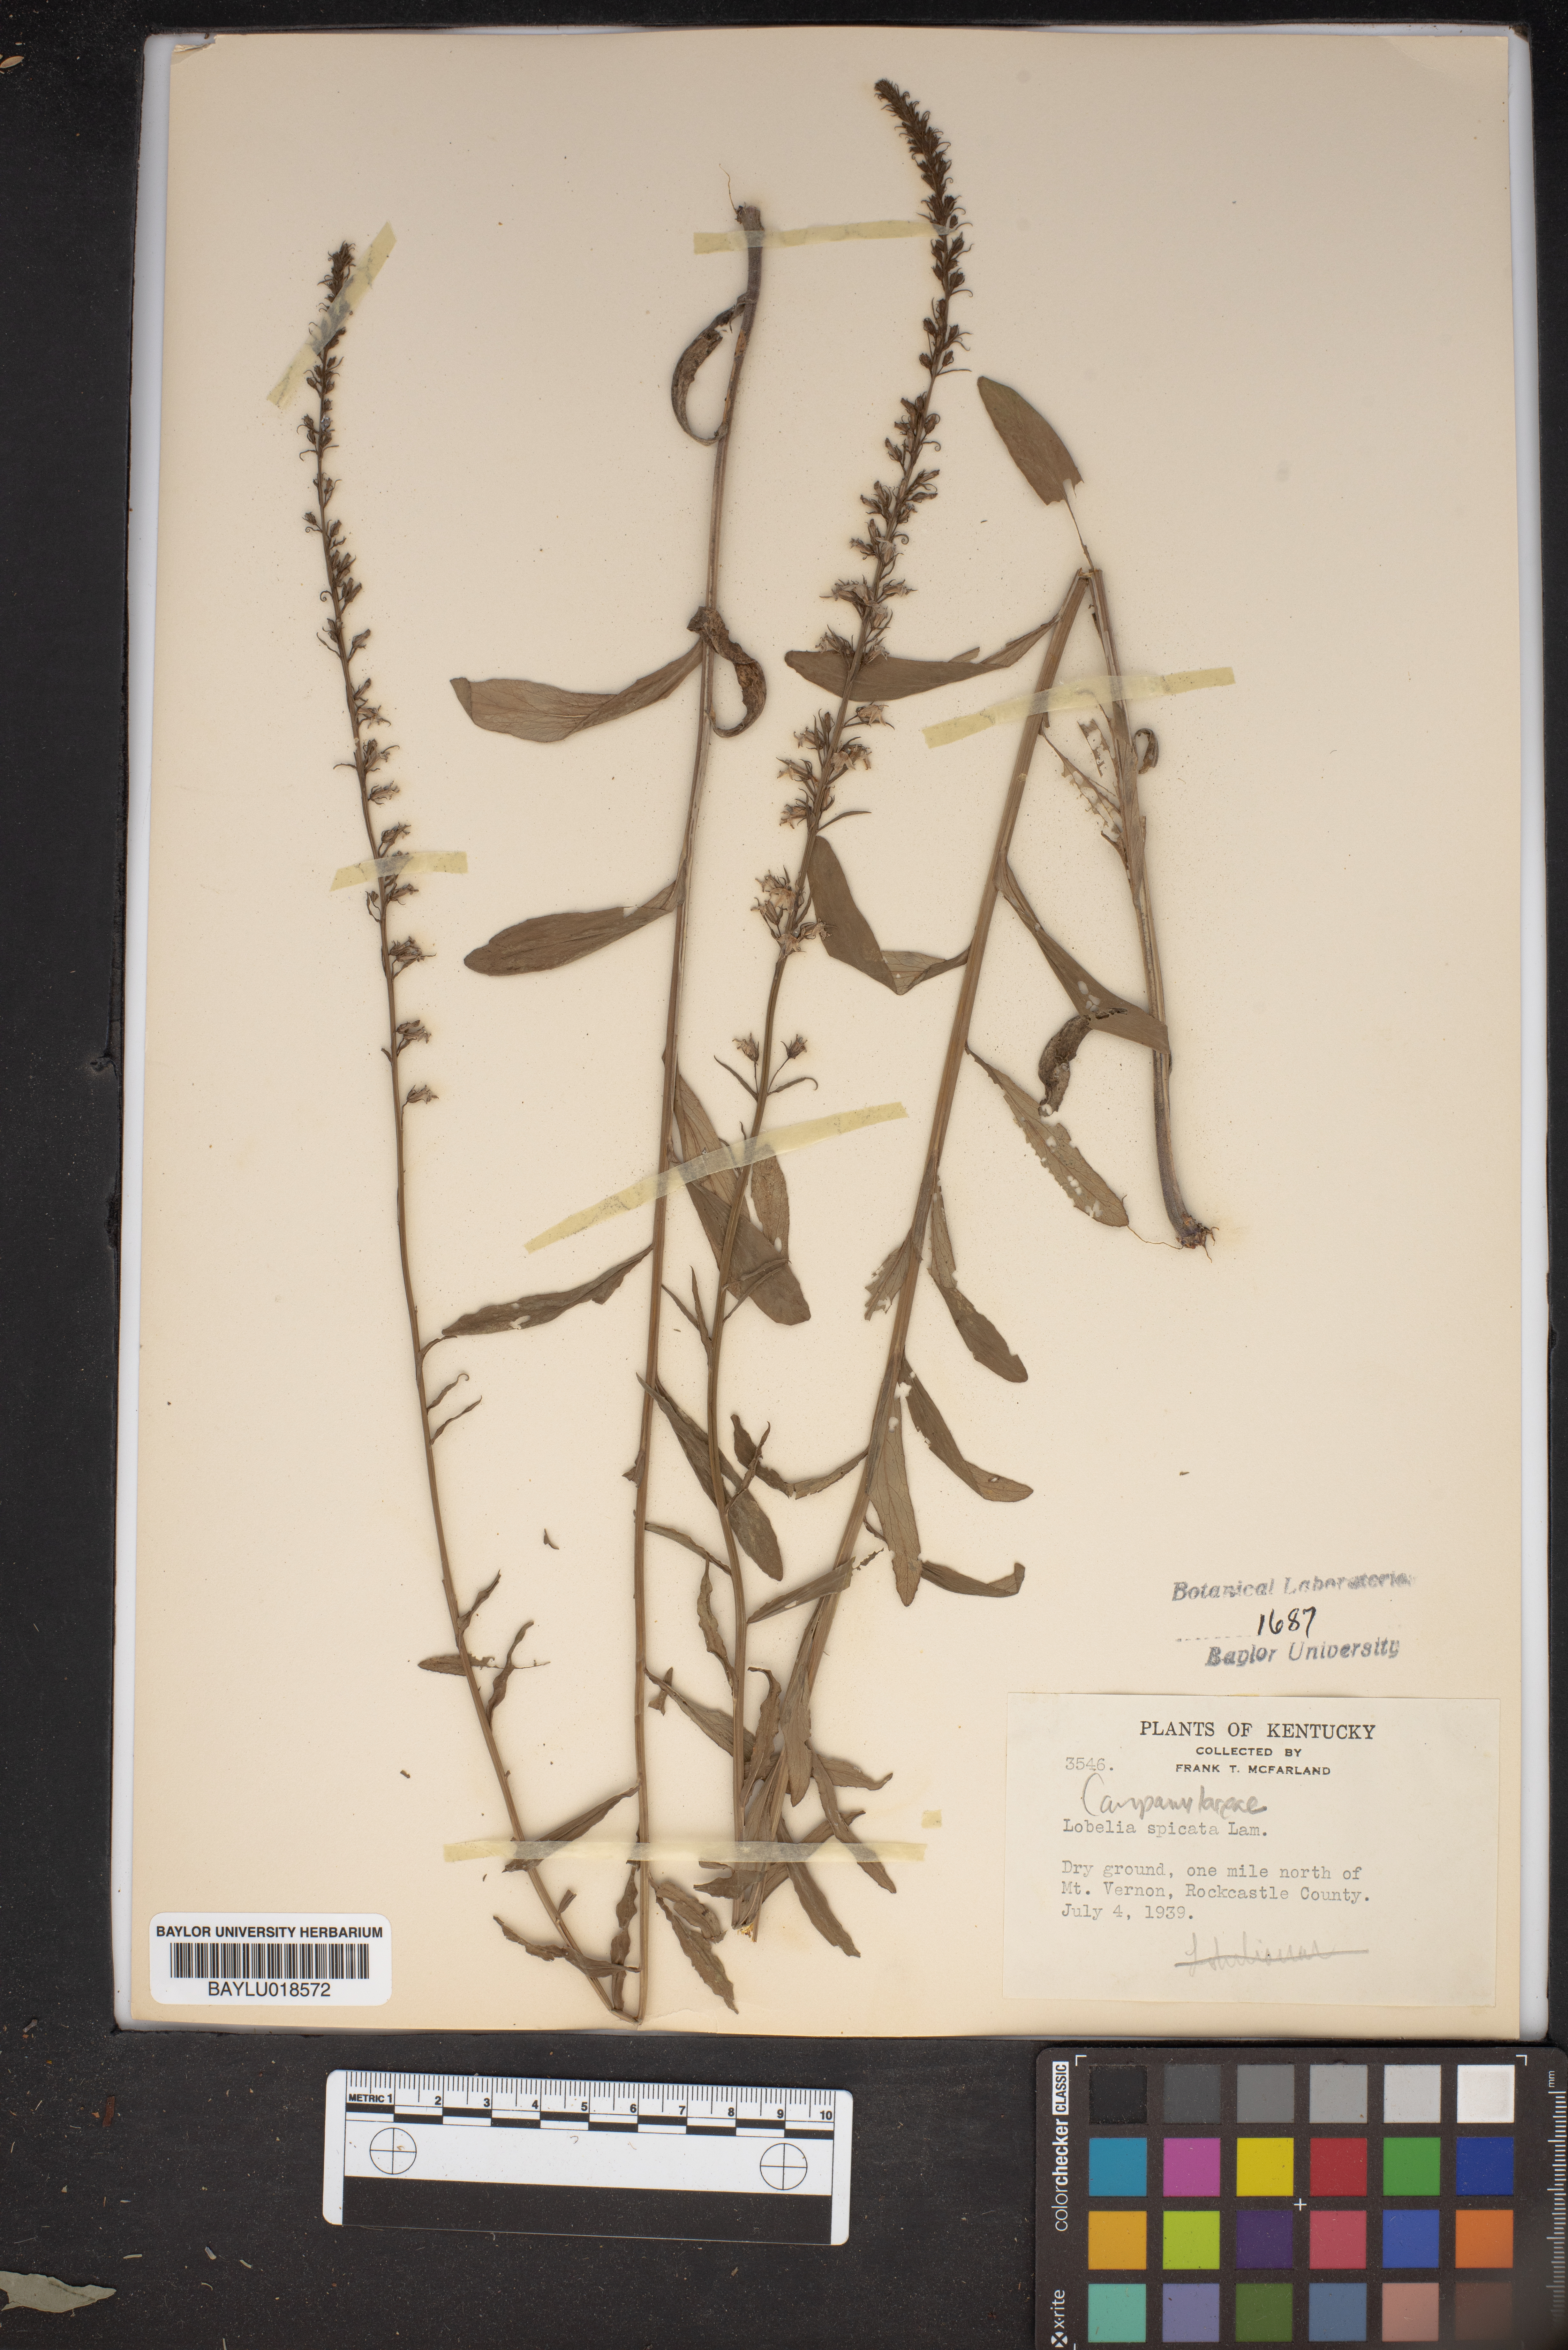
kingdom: Plantae
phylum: Tracheophyta
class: Magnoliopsida
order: Asterales
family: Campanulaceae
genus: Lobelia
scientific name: Lobelia spicata
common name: Pale-spike lobelia
